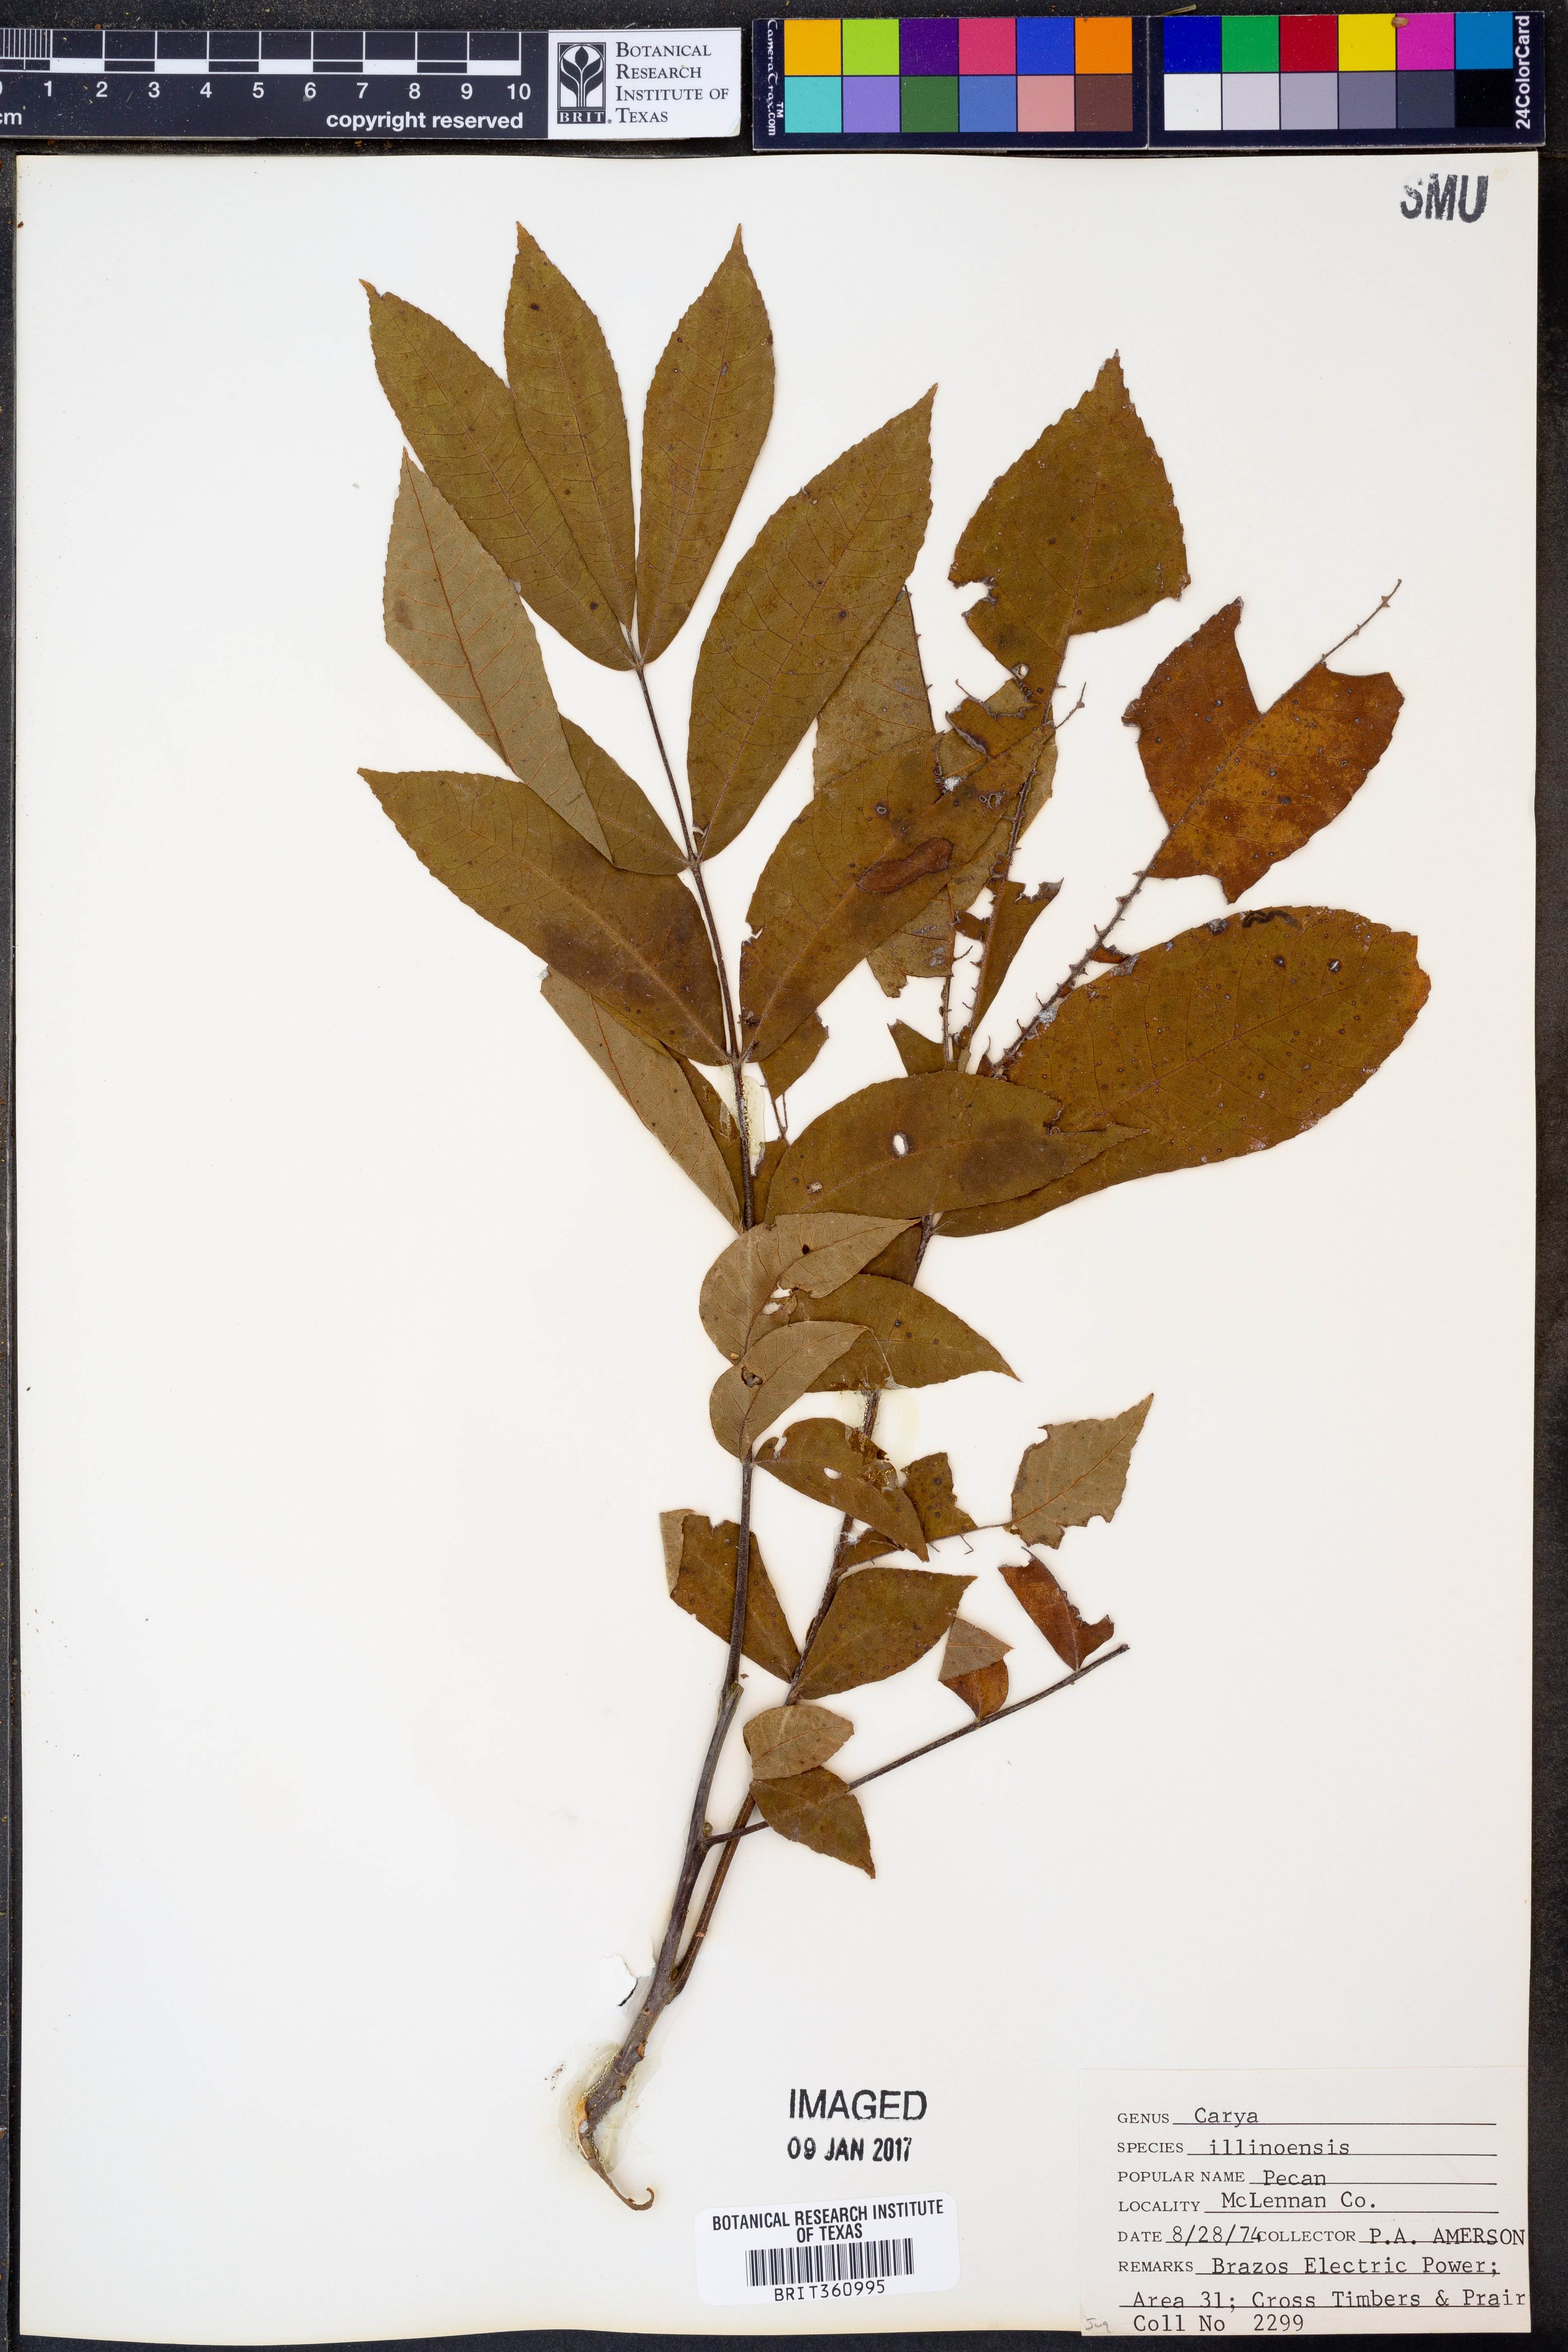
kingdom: Plantae
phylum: Tracheophyta
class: Magnoliopsida
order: Fagales
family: Juglandaceae
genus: Carya
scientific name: Carya illinoinensis
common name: Pecan
